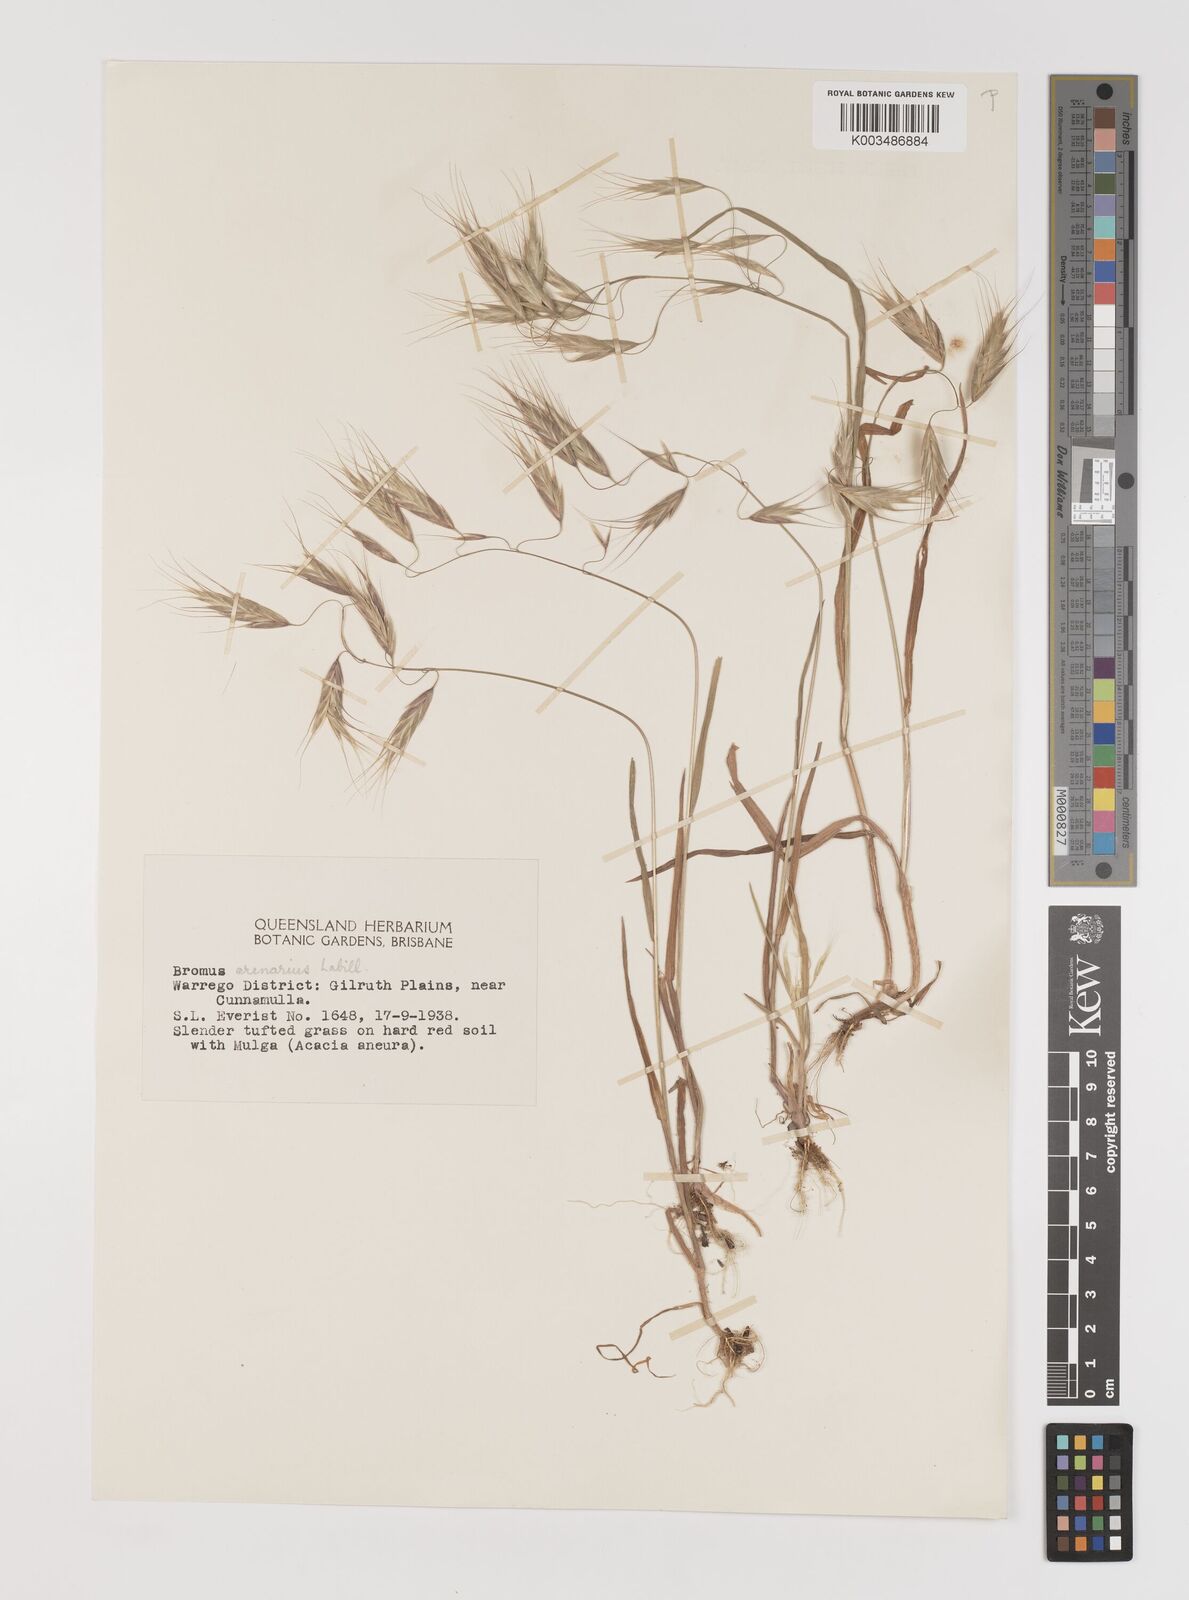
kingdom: Plantae
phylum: Tracheophyta
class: Liliopsida
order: Poales
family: Poaceae
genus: Bromus
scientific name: Bromus arenarius
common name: Australian brome
